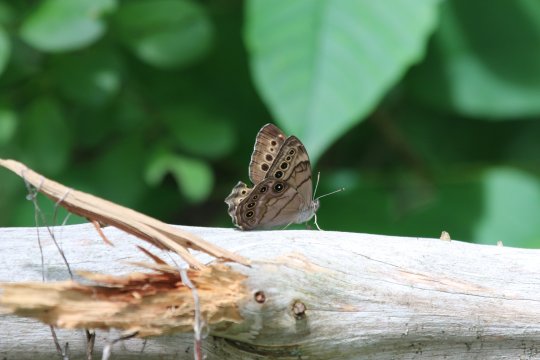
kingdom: Animalia
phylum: Arthropoda
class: Insecta
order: Lepidoptera
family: Nymphalidae
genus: Lethe
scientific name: Lethe anthedon
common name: Northern Pearly-Eye
